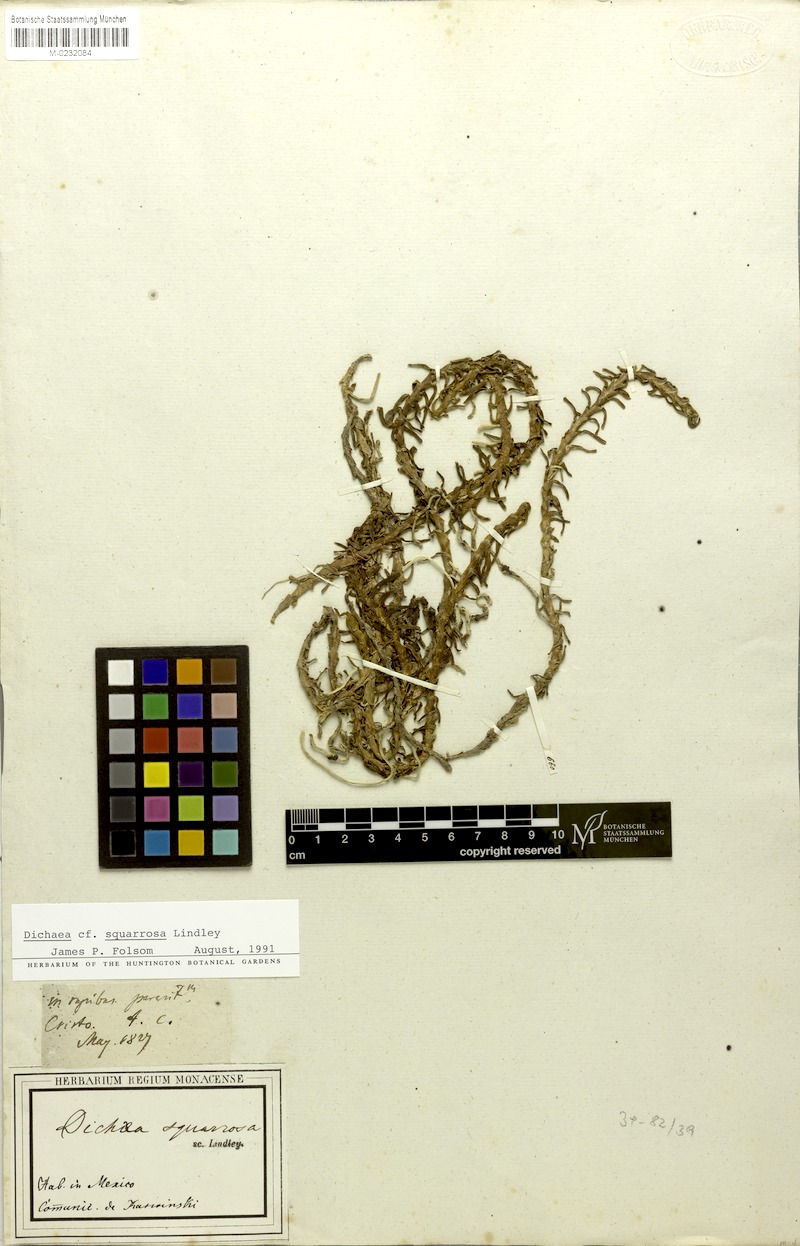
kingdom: Plantae
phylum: Tracheophyta
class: Liliopsida
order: Asparagales
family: Orchidaceae
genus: Dichaea
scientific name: Dichaea squarrosa
